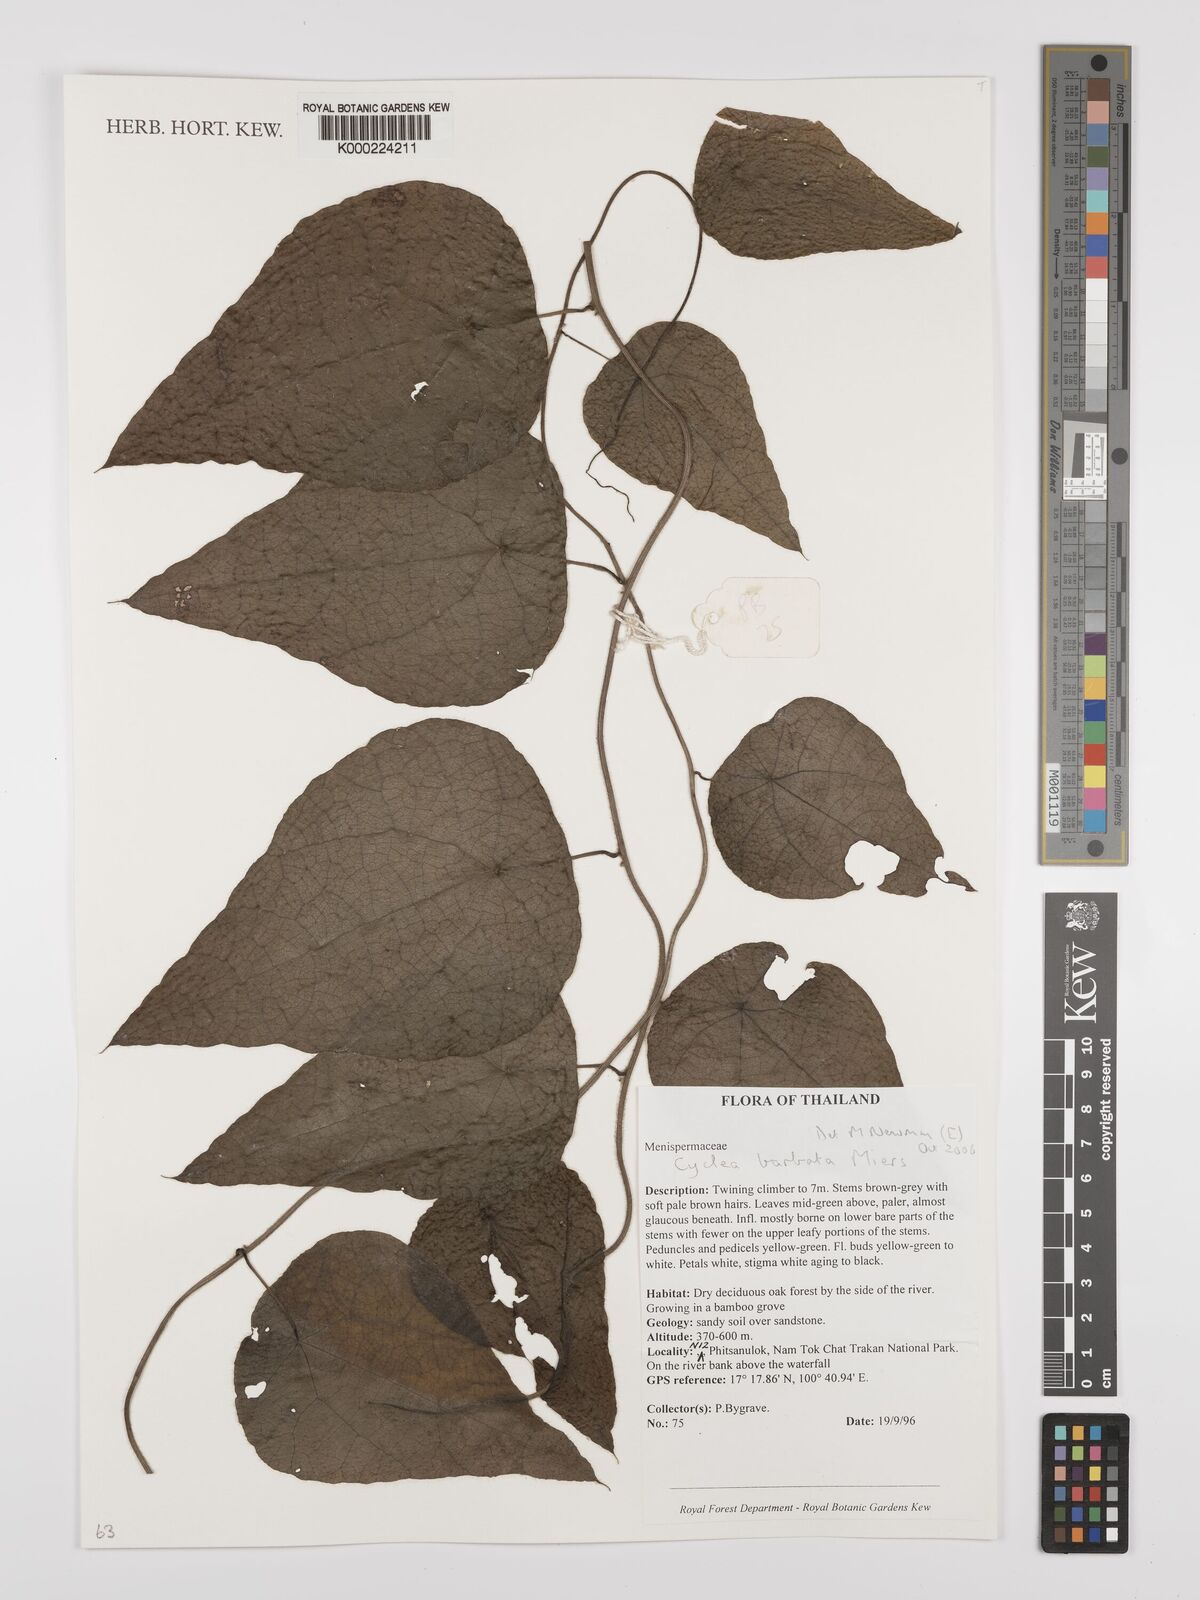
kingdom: Plantae
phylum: Tracheophyta
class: Magnoliopsida
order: Ranunculales
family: Menispermaceae
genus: Cyclea
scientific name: Cyclea barbata
